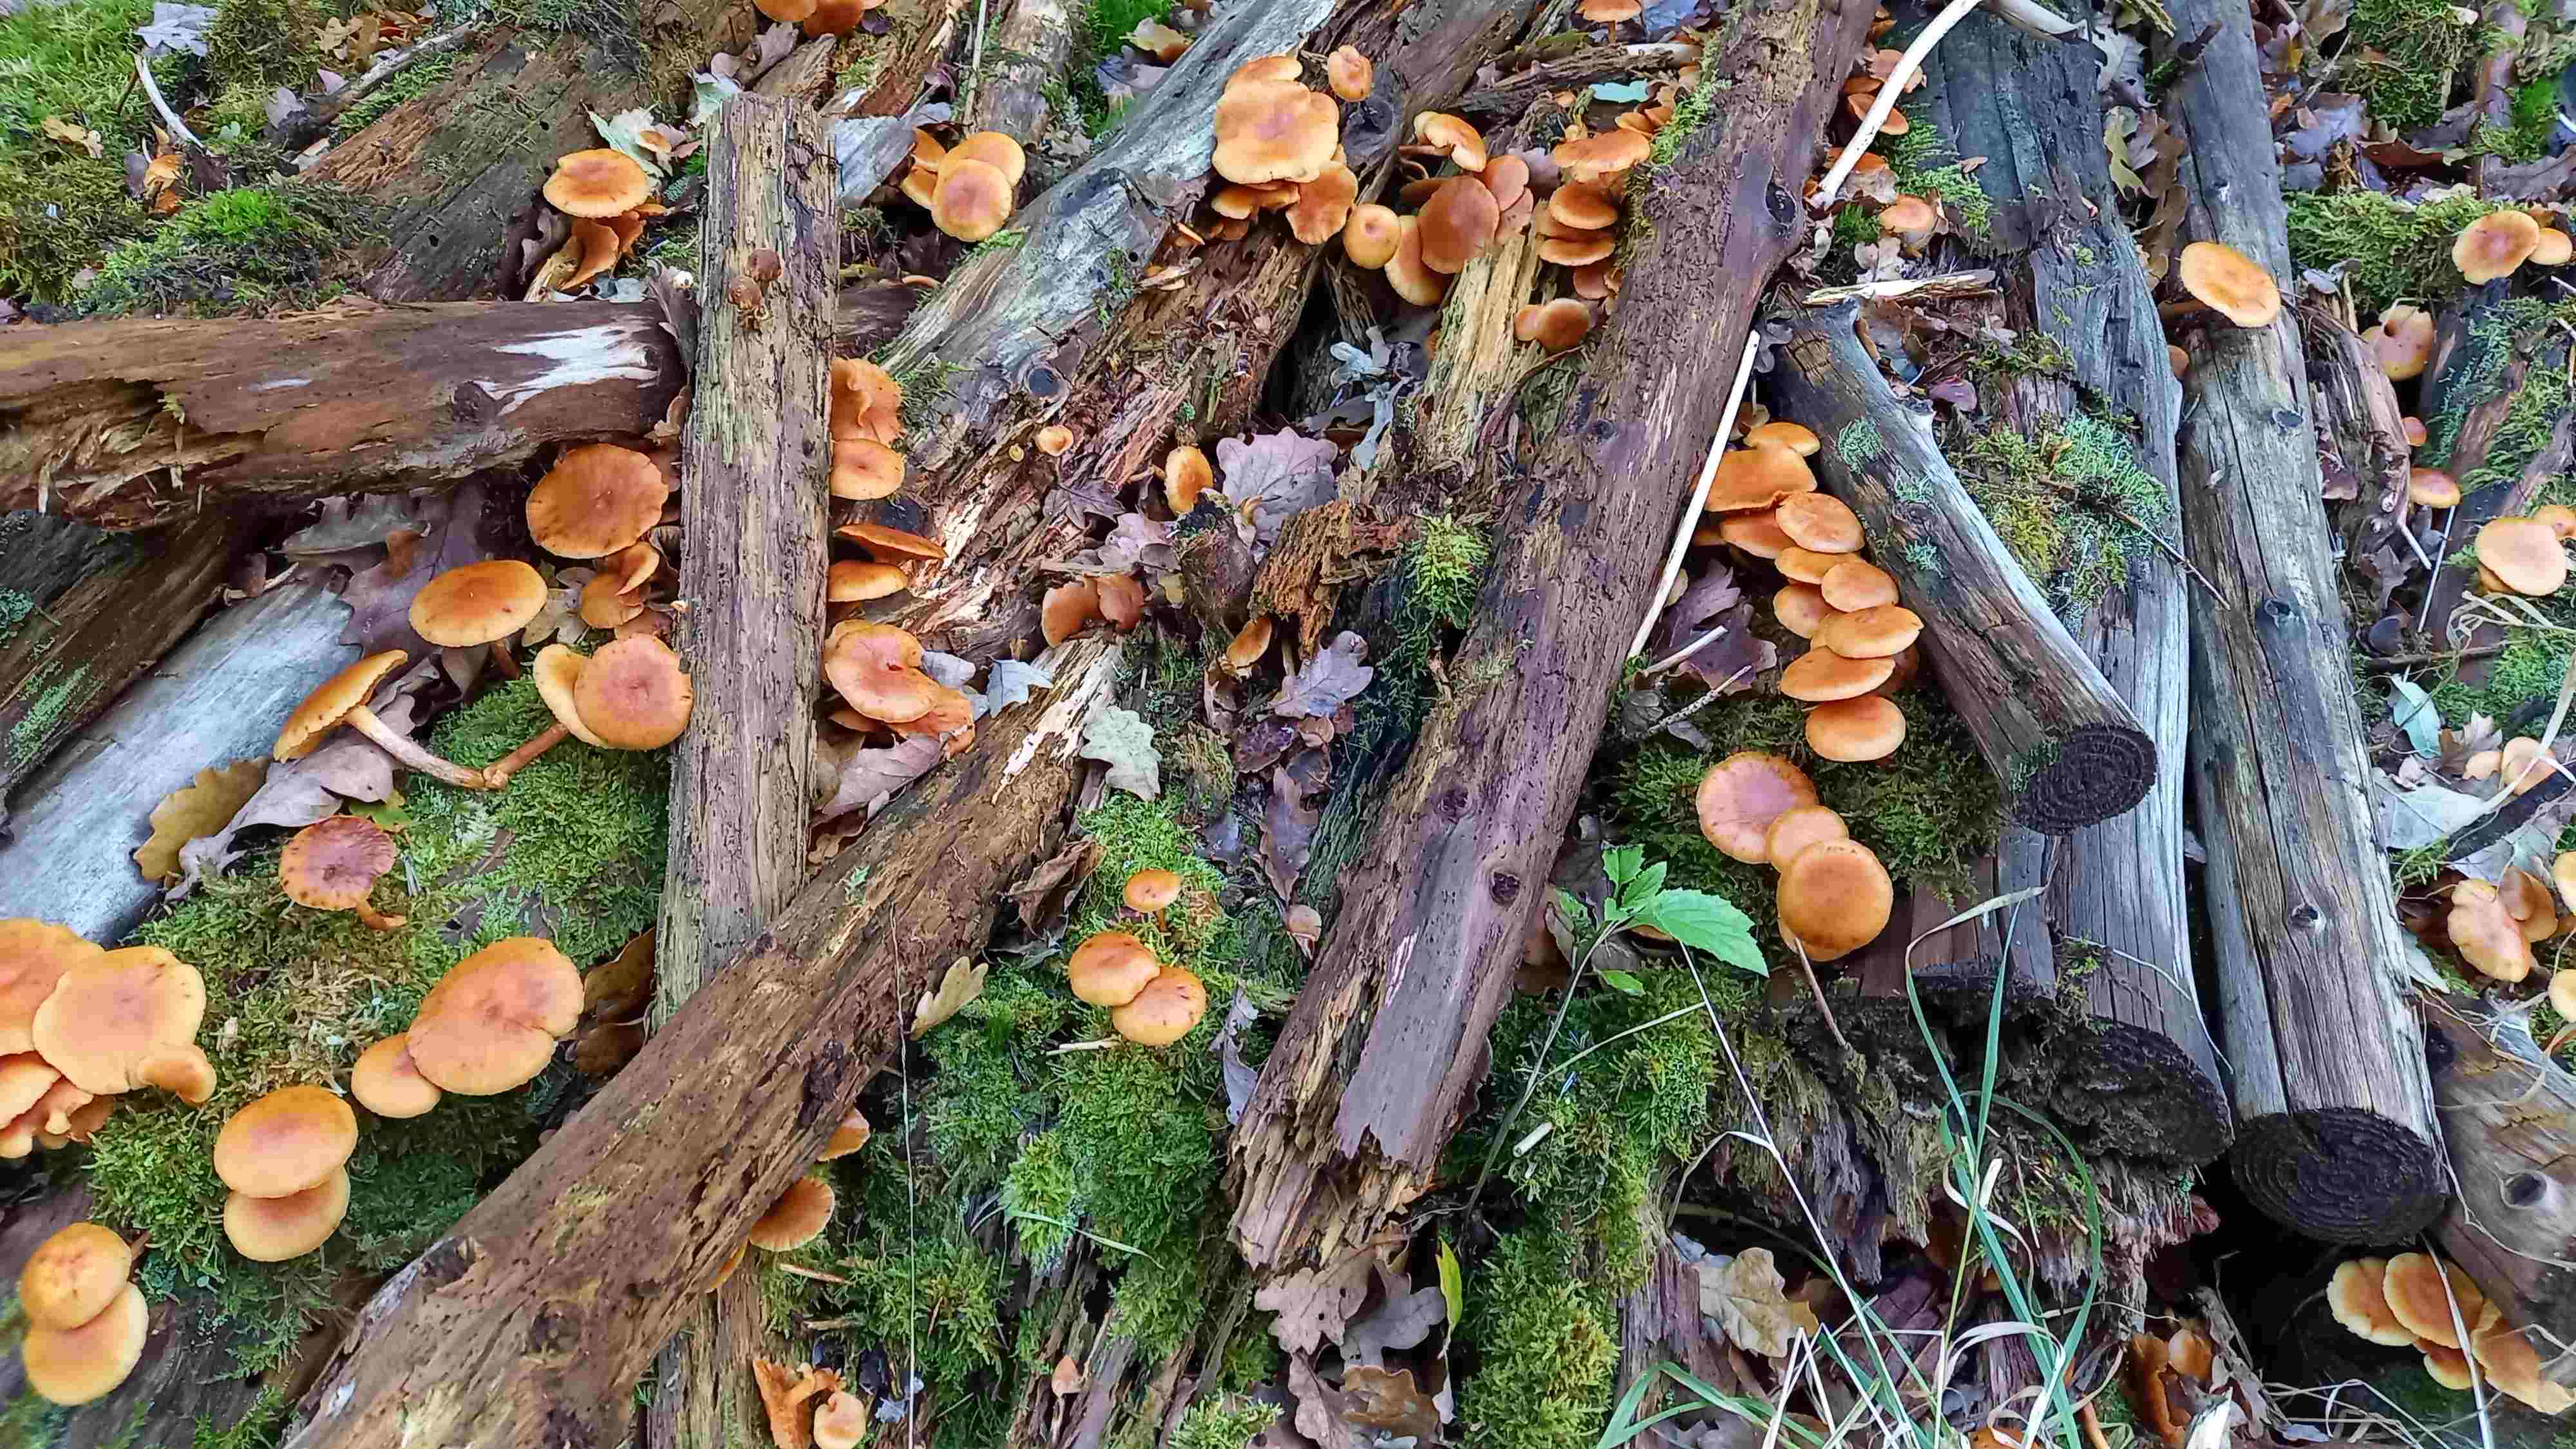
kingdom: Fungi
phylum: Basidiomycota
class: Agaricomycetes
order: Agaricales
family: Hymenogastraceae
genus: Gymnopilus
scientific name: Gymnopilus penetrans
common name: plettet flammehat
